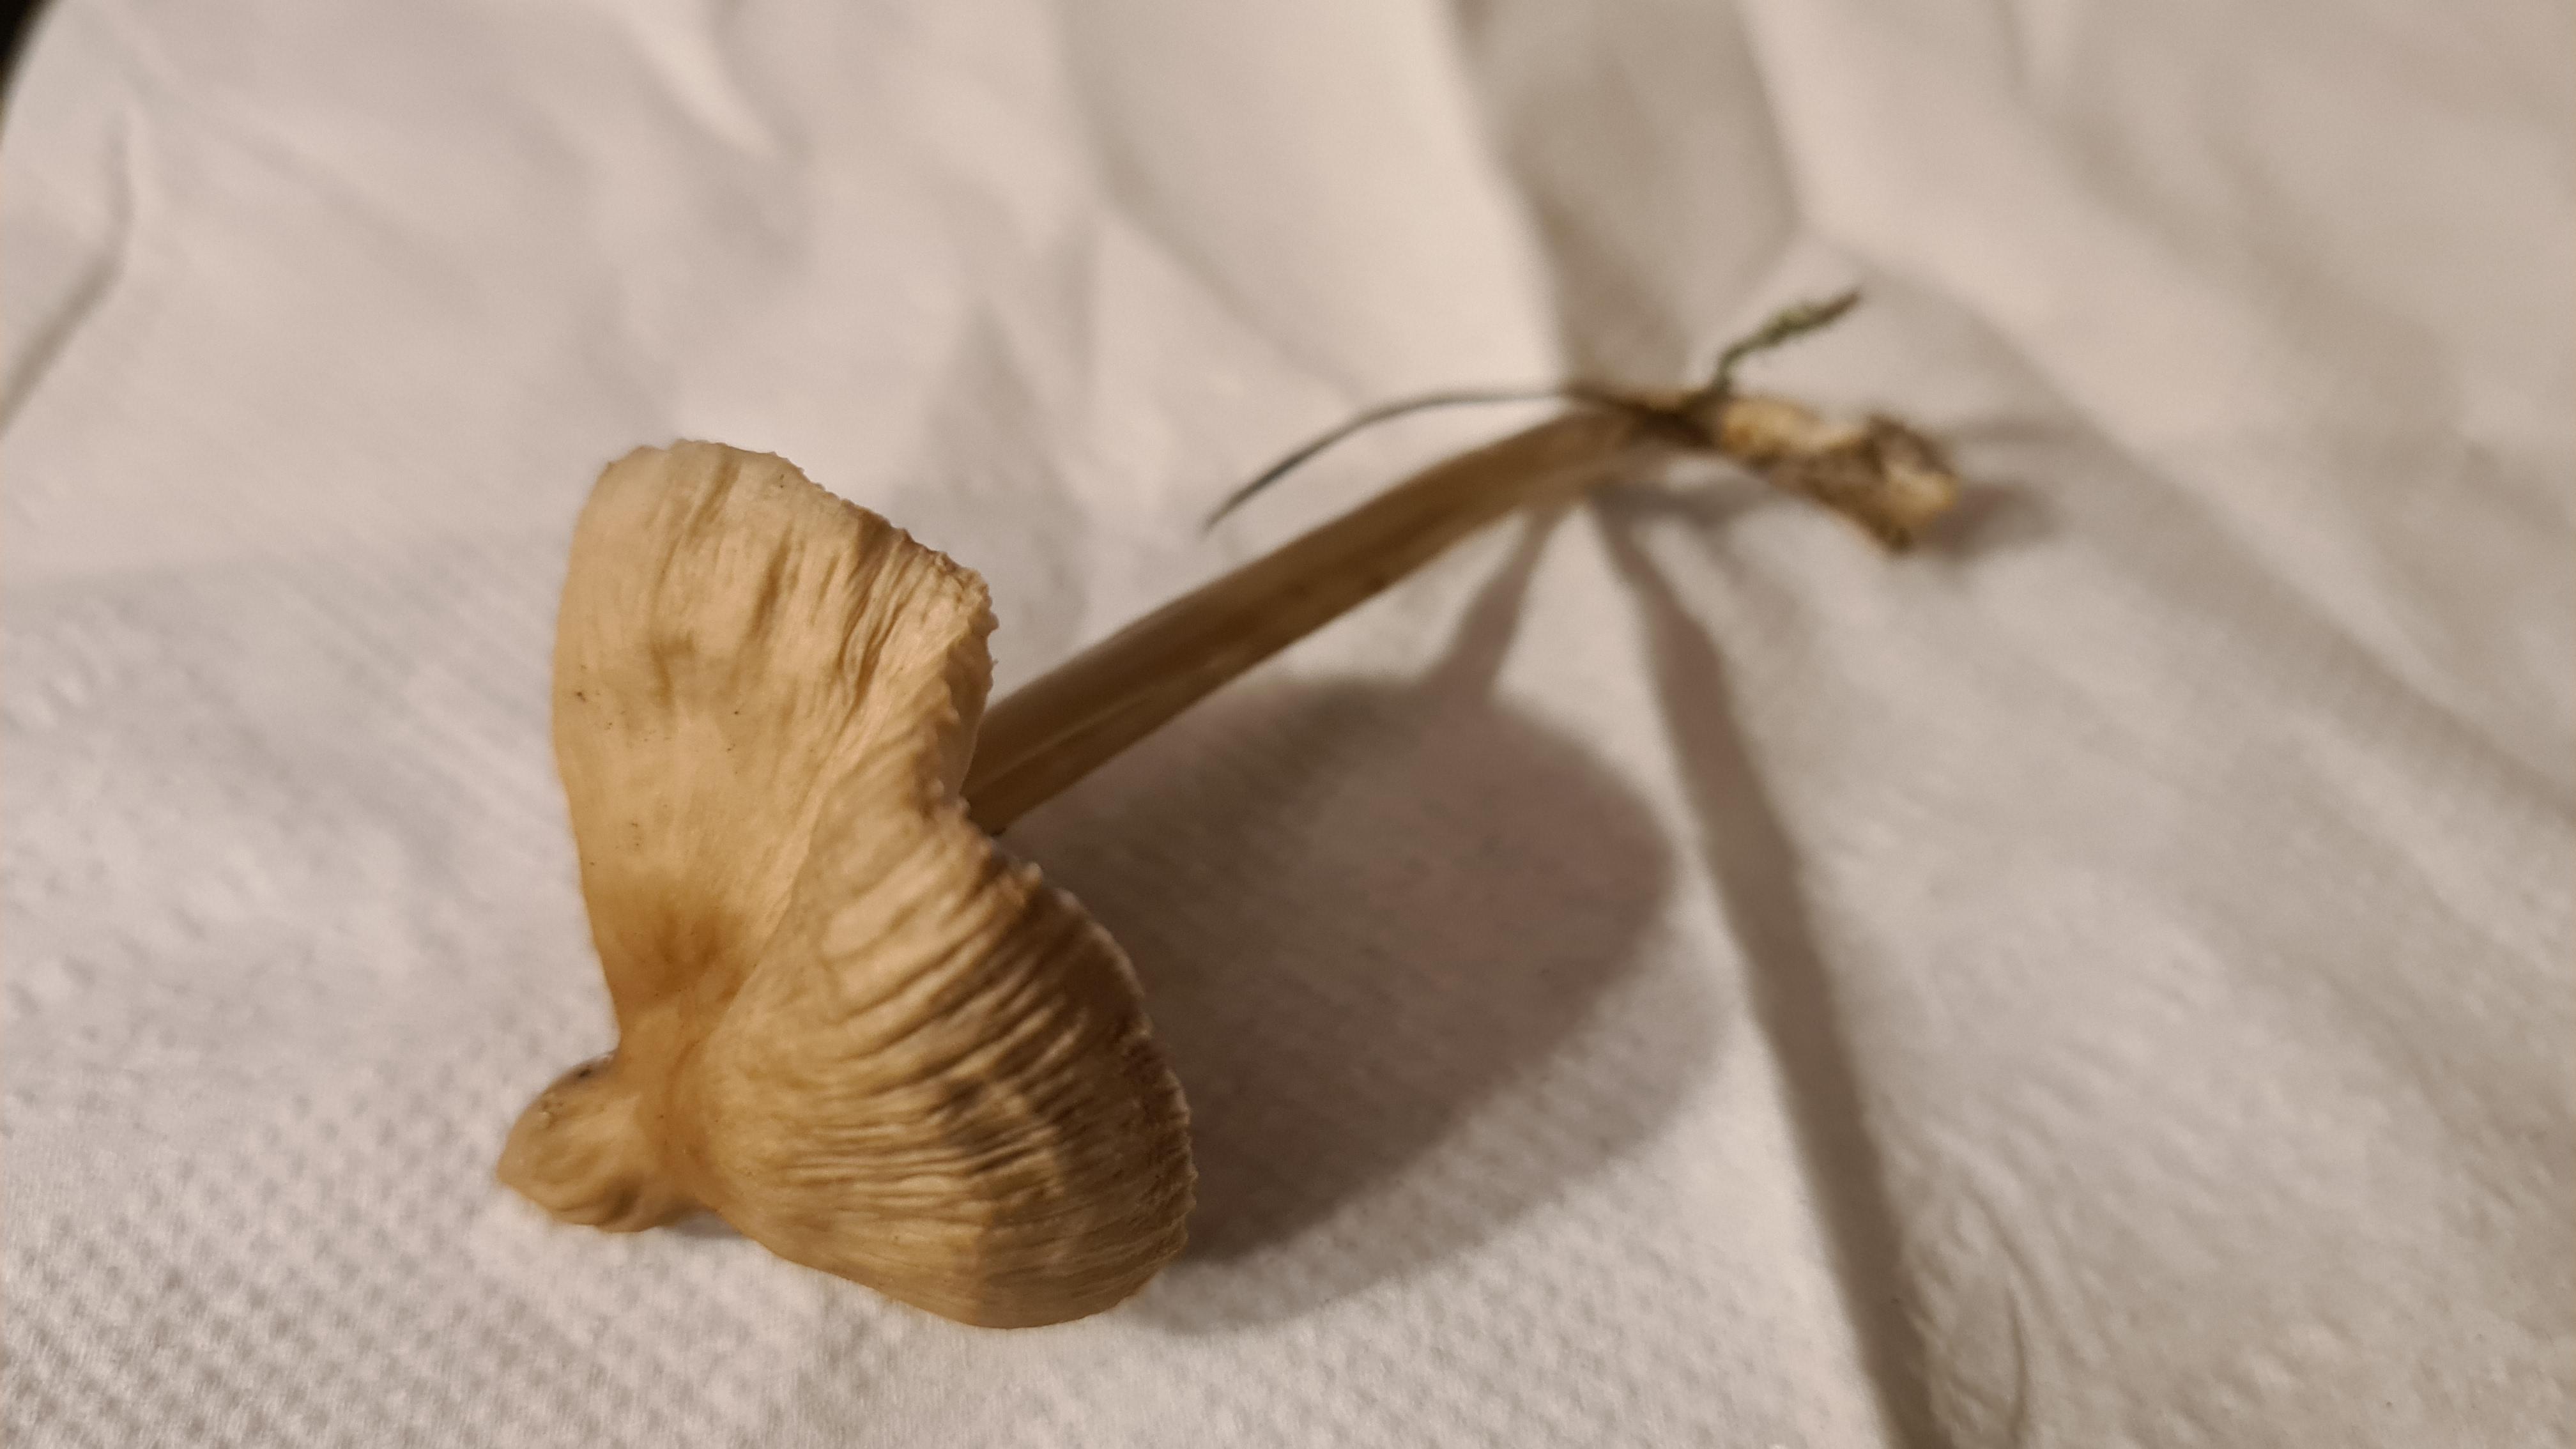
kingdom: Fungi
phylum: Basidiomycota
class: Agaricomycetes
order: Agaricales
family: Mycenaceae
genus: Mycena
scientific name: Mycena galericulata
